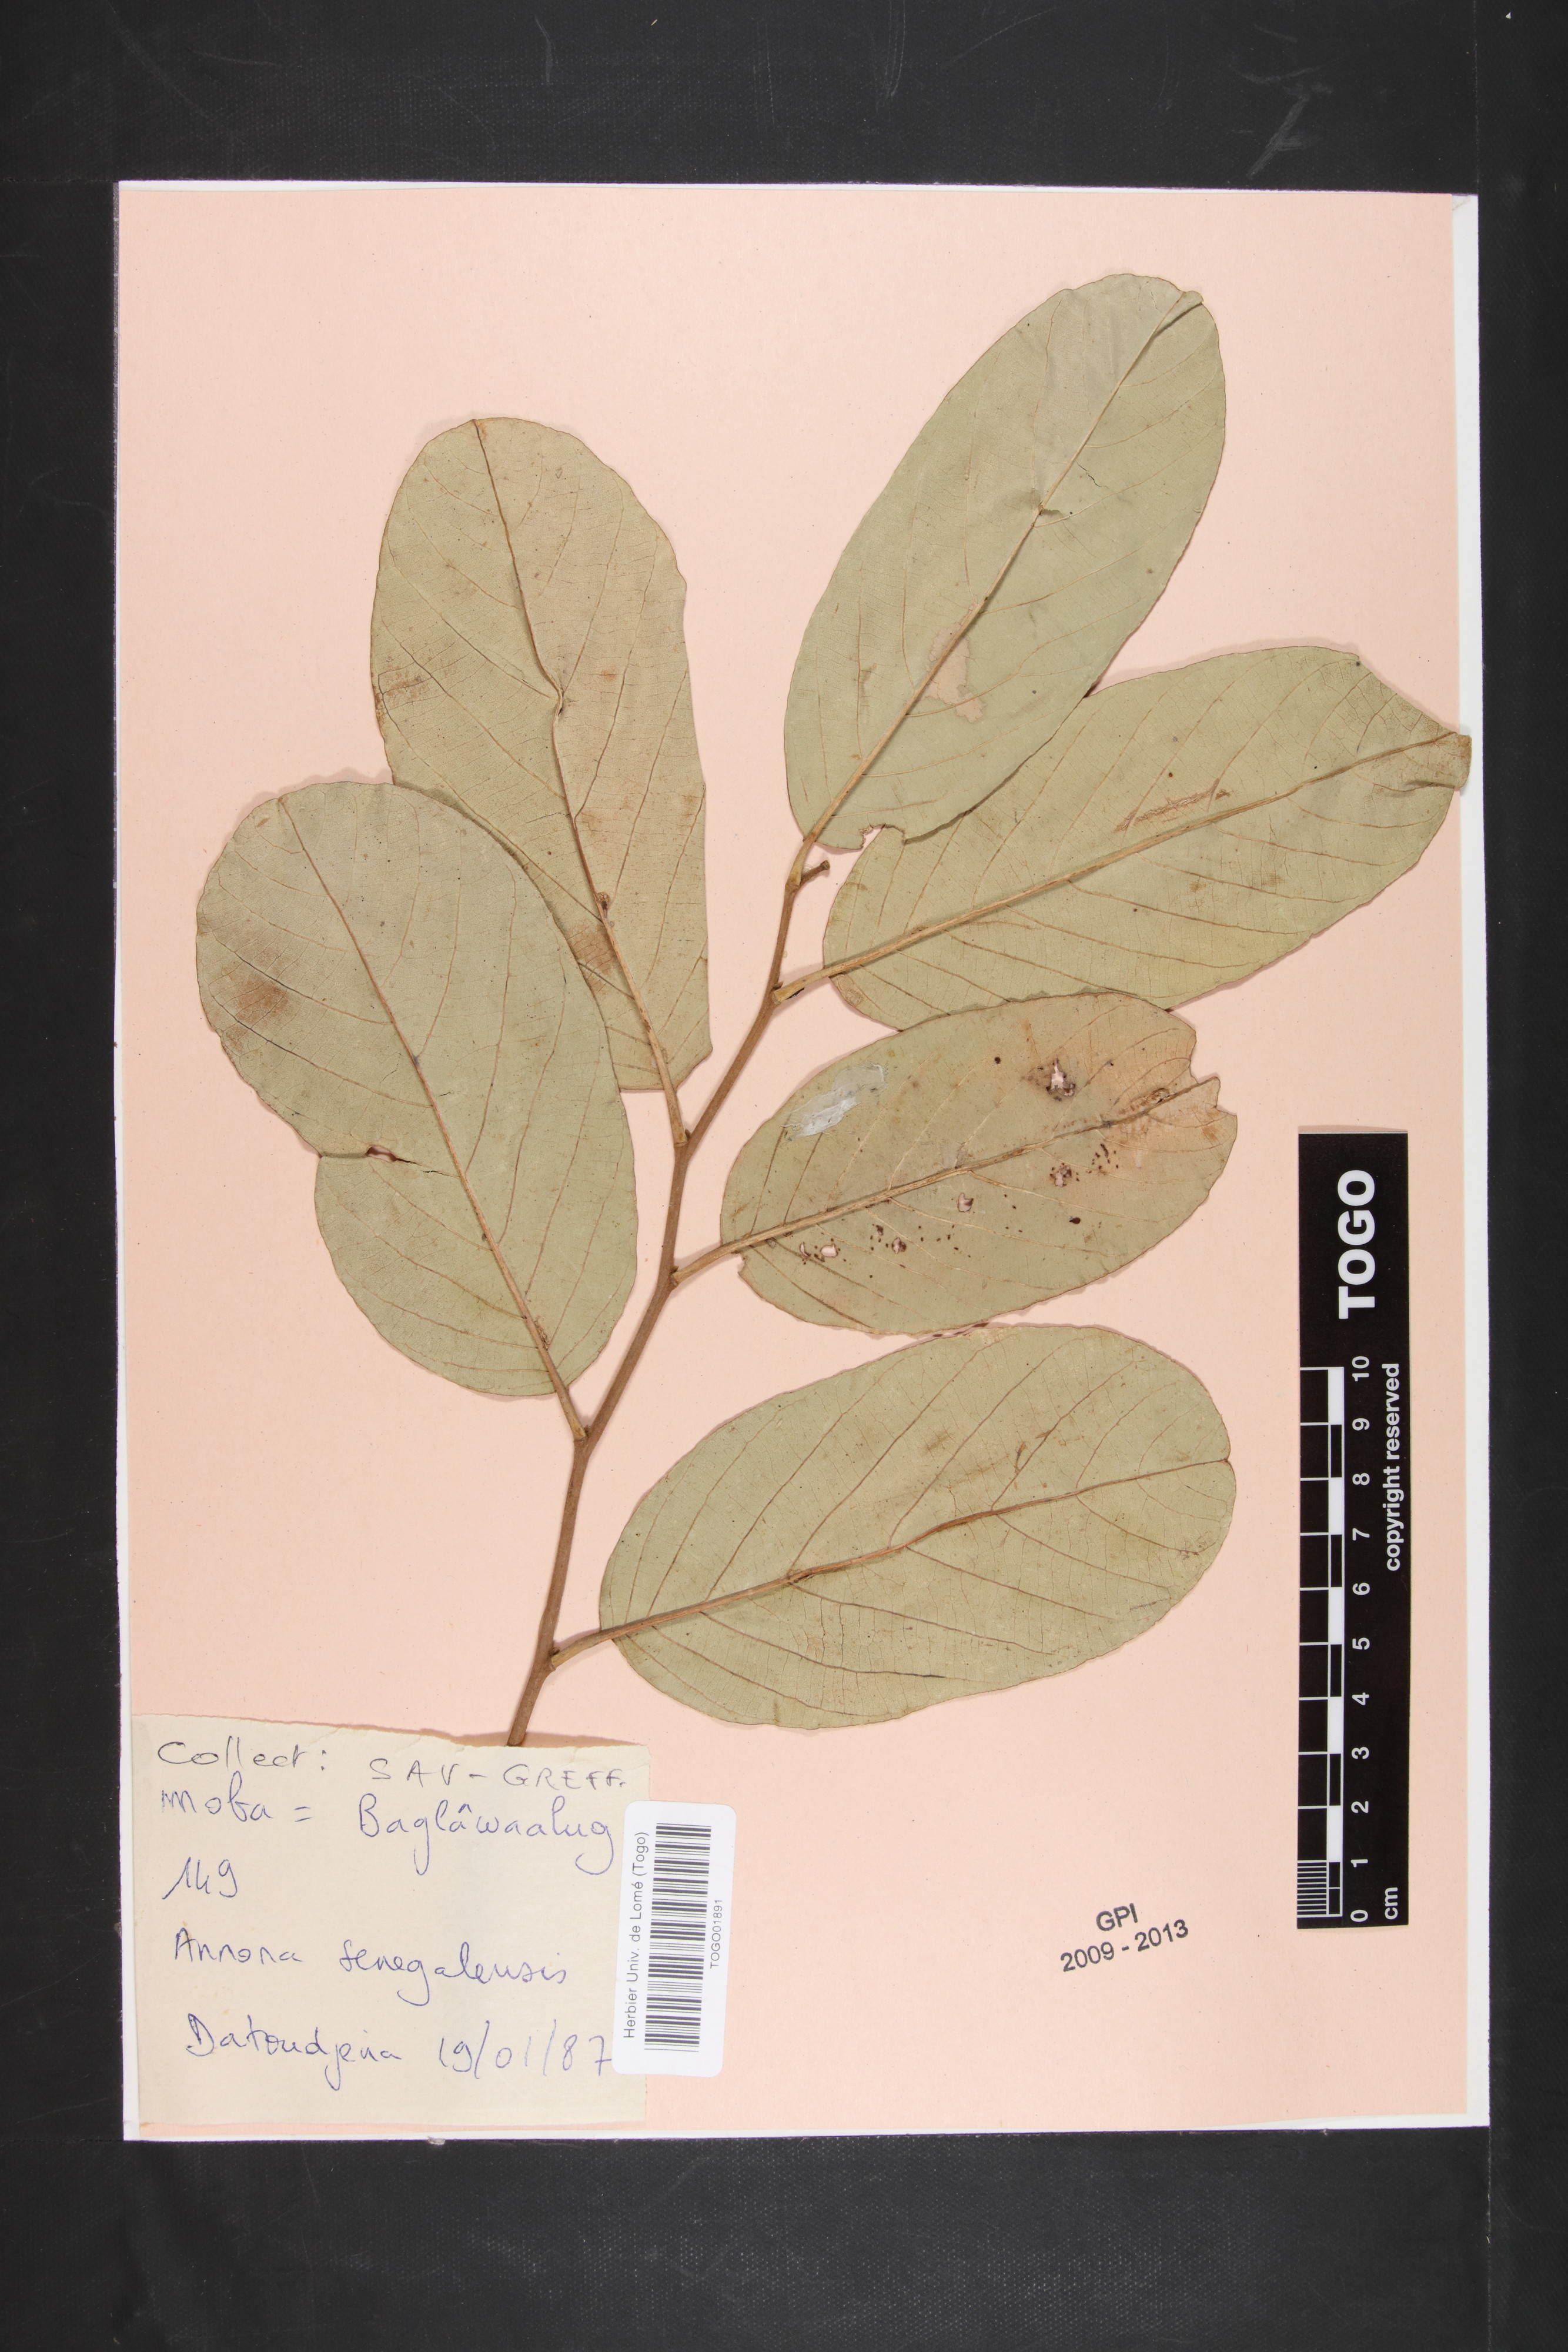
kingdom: Plantae
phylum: Tracheophyta
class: Magnoliopsida
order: Magnoliales
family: Annonaceae
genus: Annona
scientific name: Annona senegalensis
